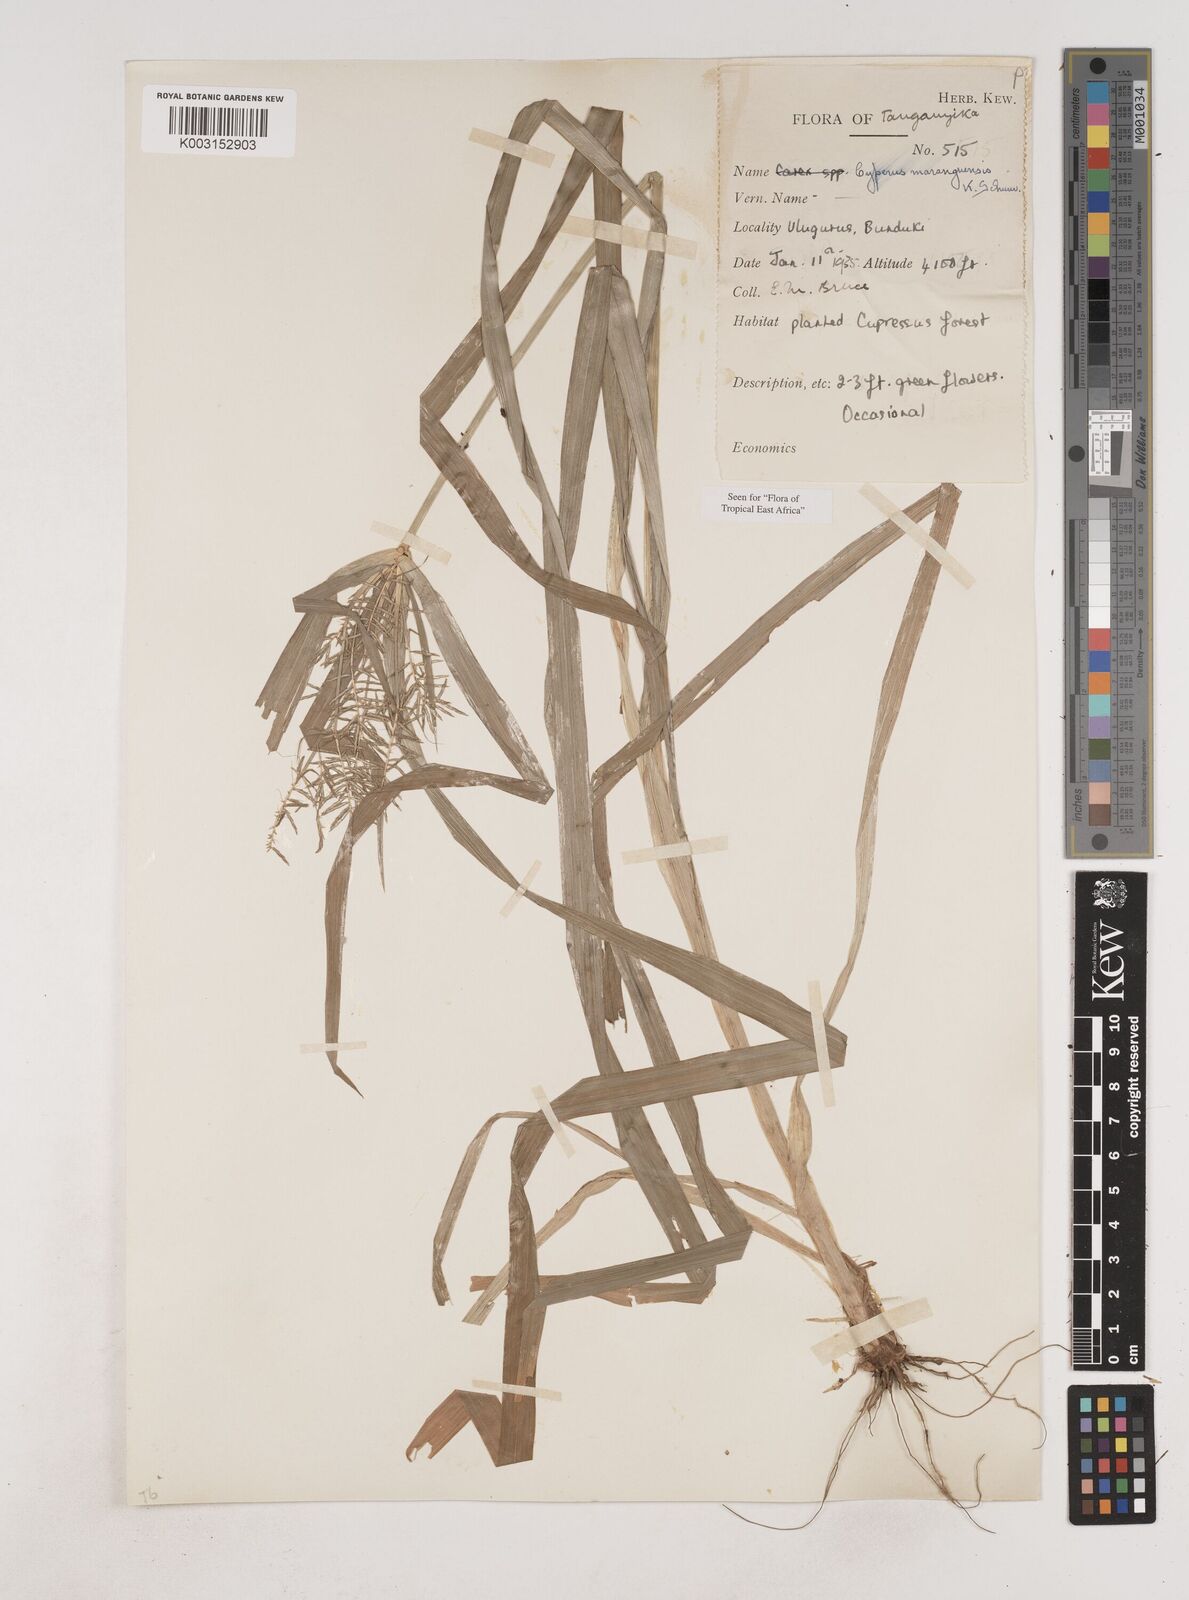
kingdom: Plantae
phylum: Tracheophyta
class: Liliopsida
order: Poales
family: Cyperaceae
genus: Cyperus
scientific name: Cyperus maranguensis
